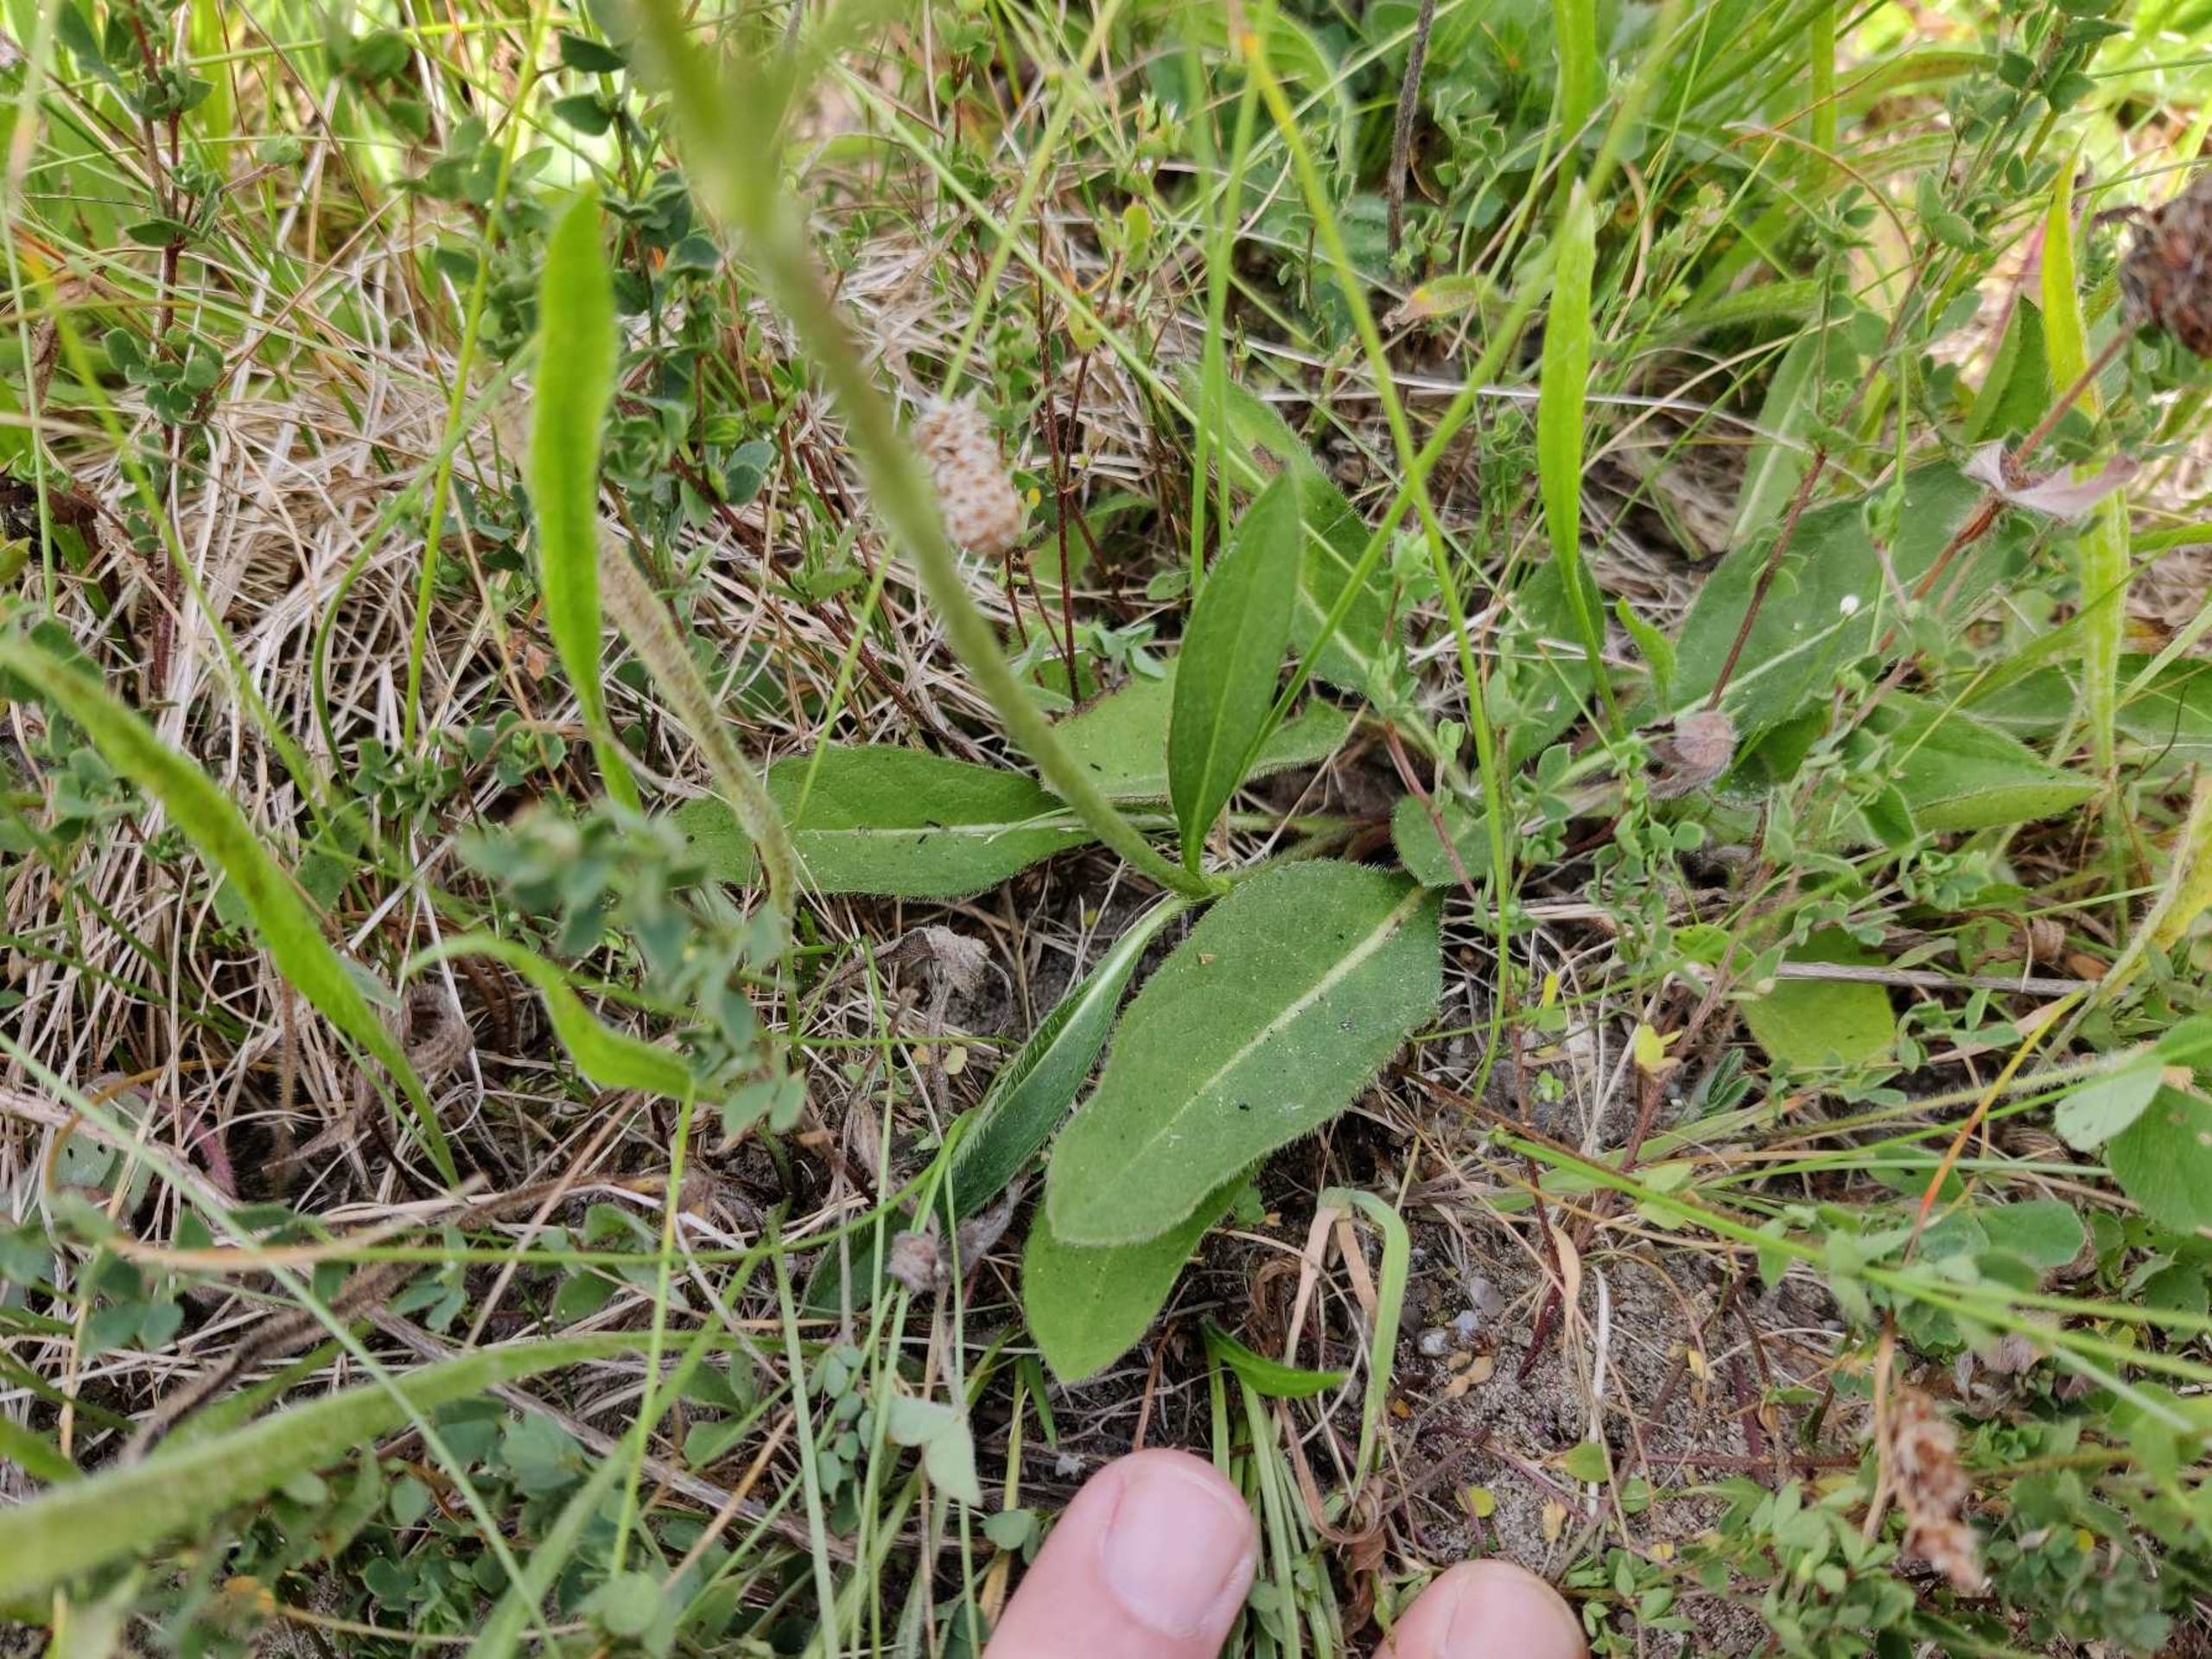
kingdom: Plantae
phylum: Tracheophyta
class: Magnoliopsida
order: Dipsacales
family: Caprifoliaceae
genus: Succisa
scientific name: Succisa pratensis
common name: Djævelsbid
